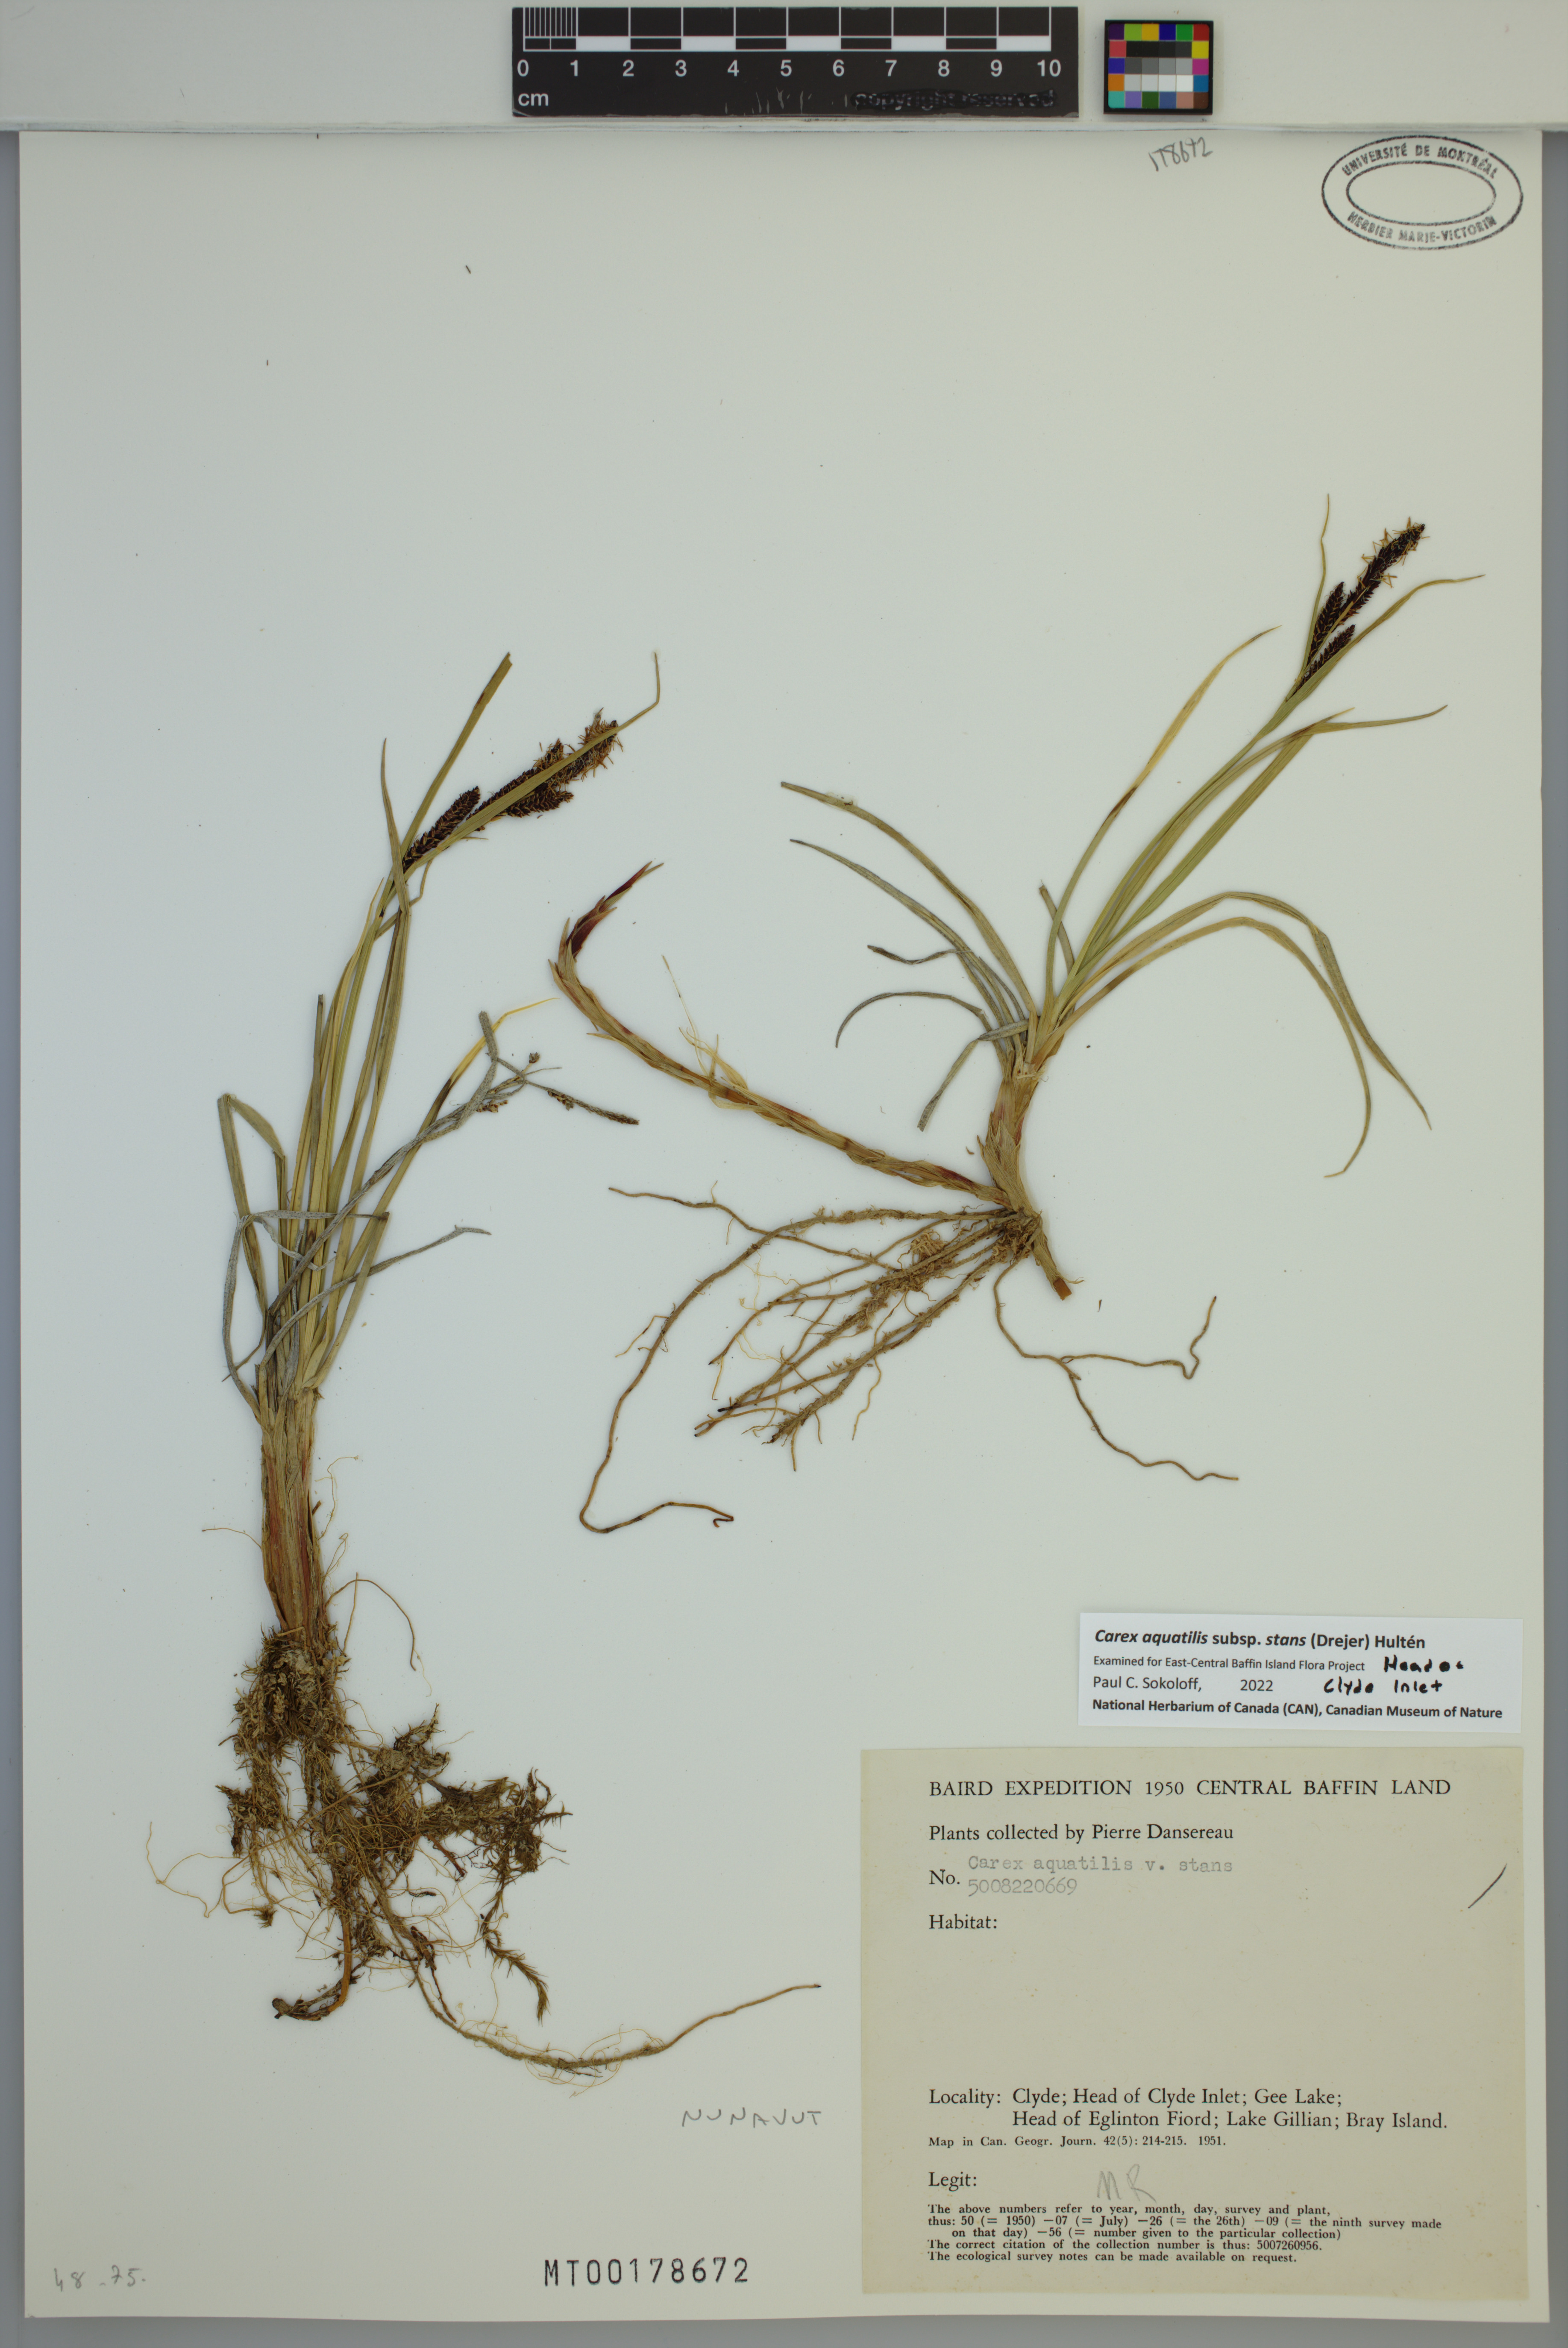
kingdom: Plantae
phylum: Tracheophyta
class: Liliopsida
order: Poales
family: Cyperaceae
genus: Carex
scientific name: Carex aquatilis
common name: Water sedge
